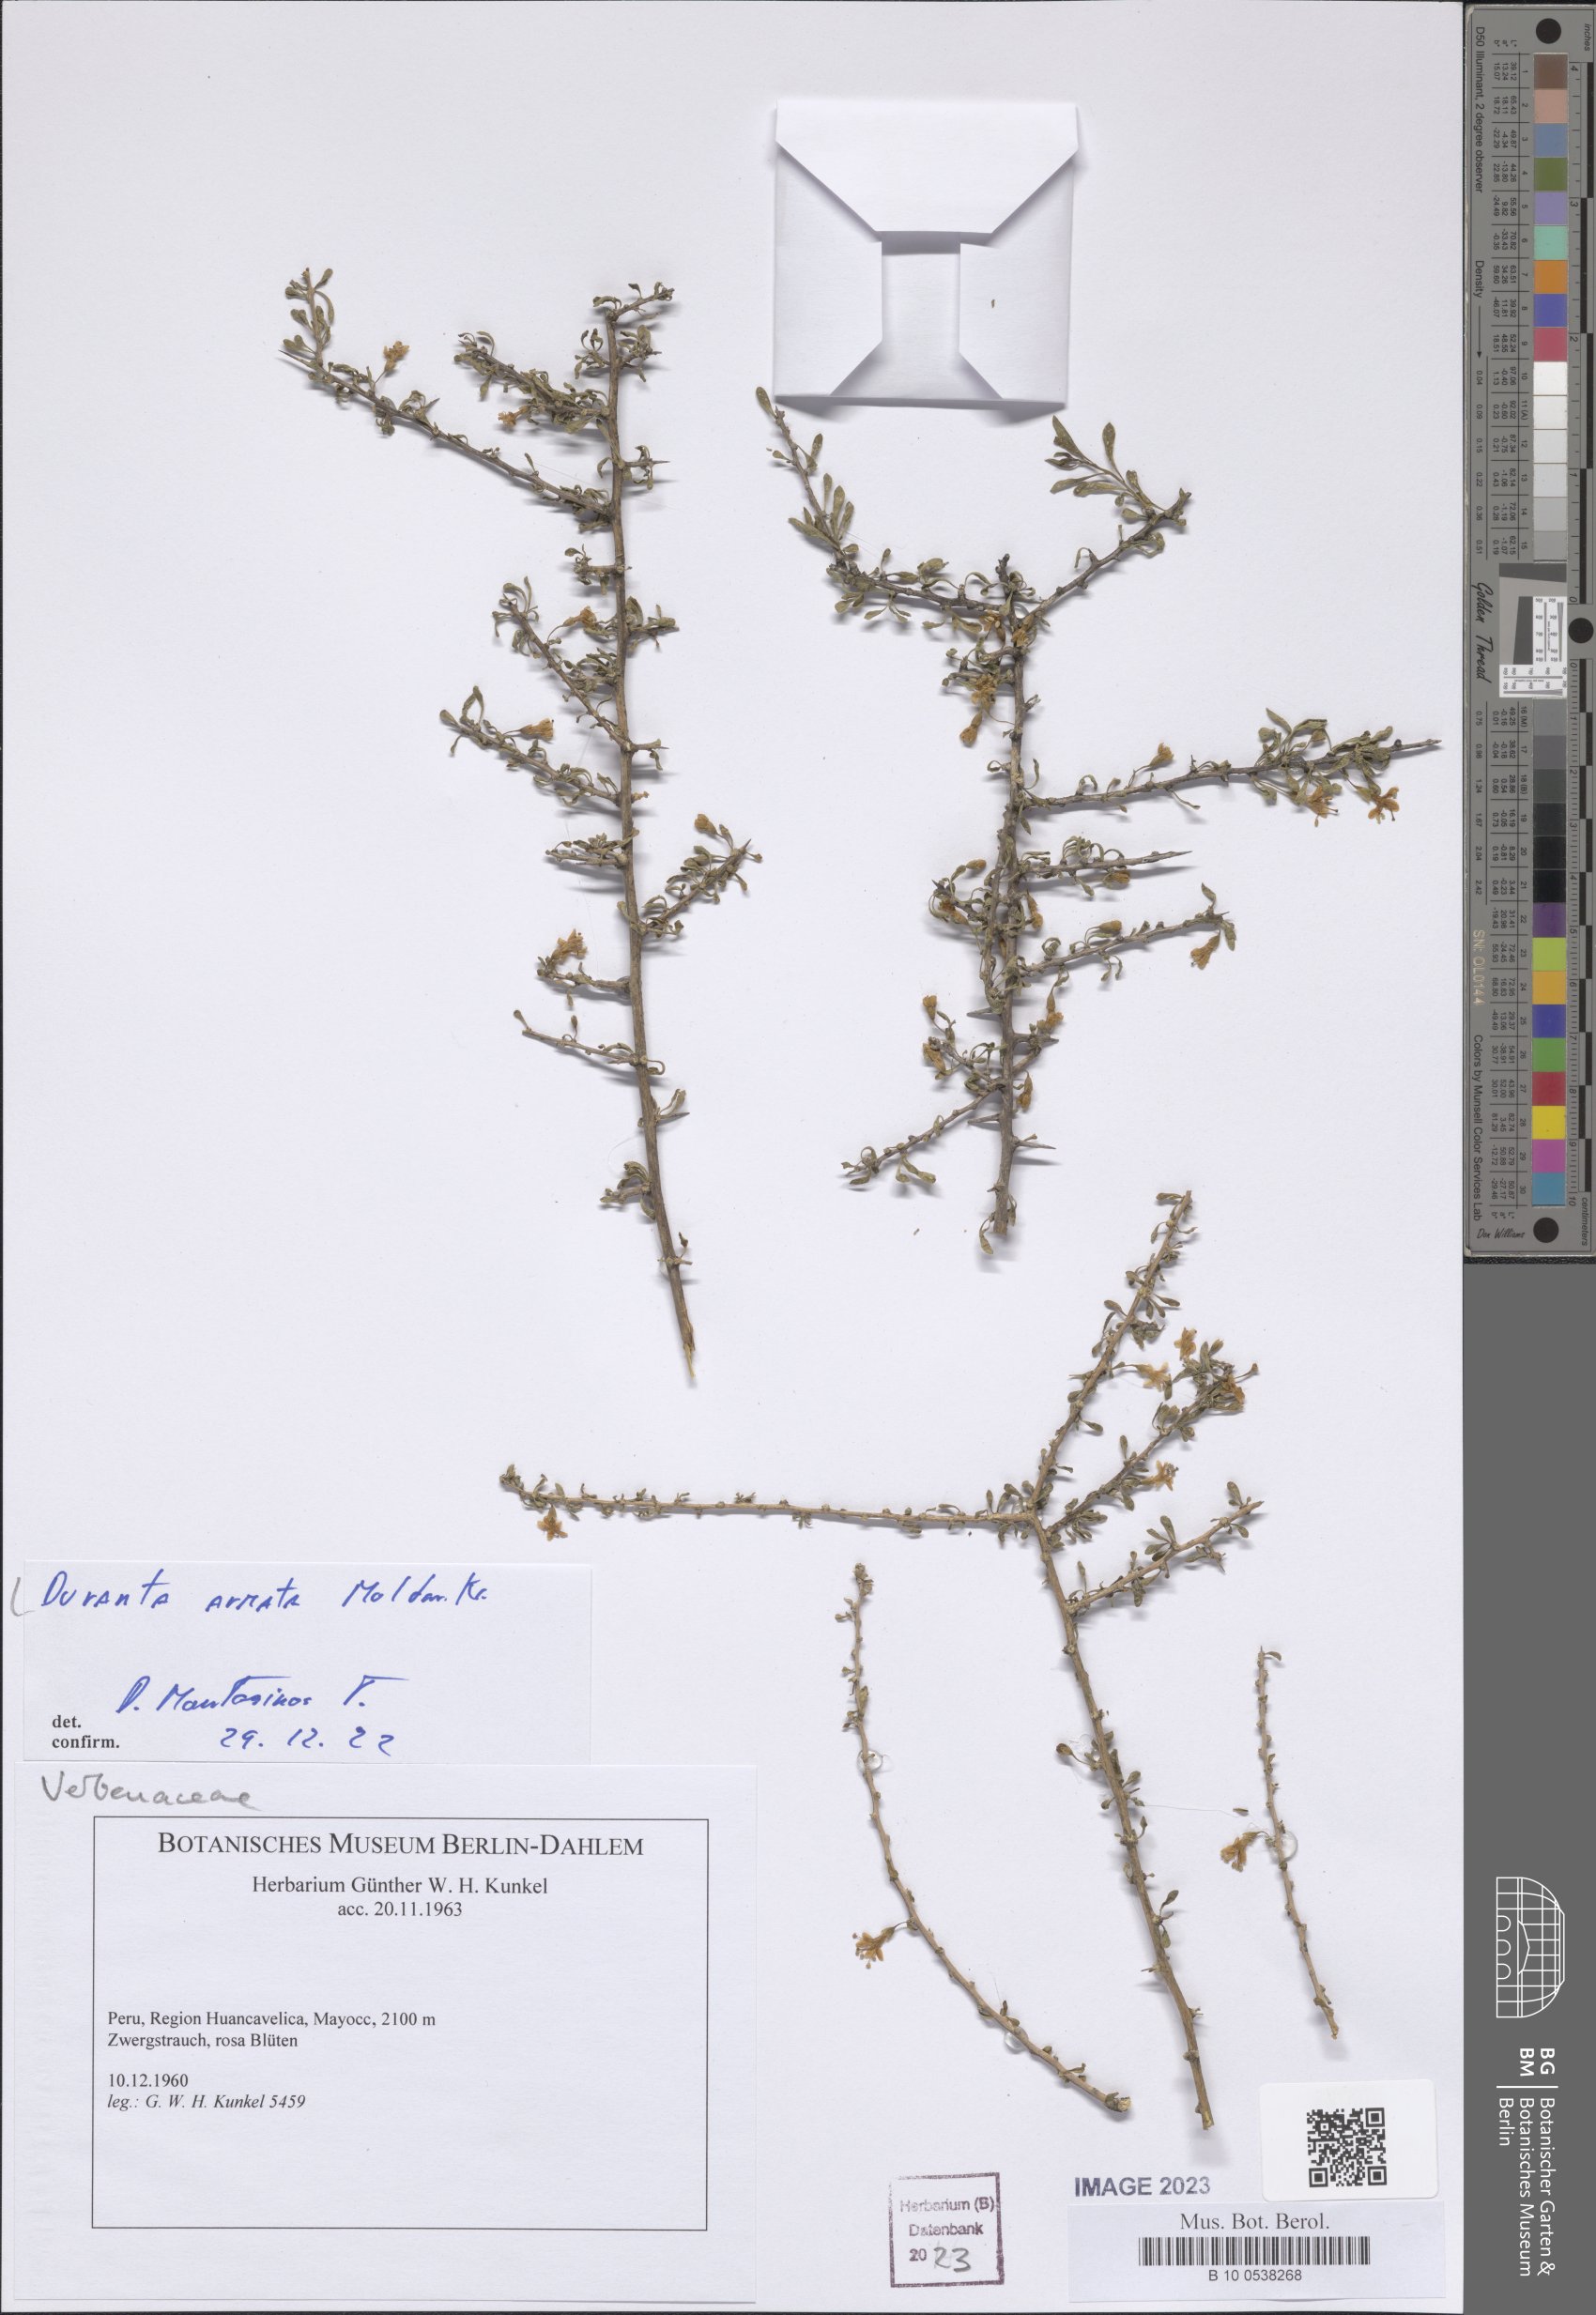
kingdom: Plantae
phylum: Tracheophyta
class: Magnoliopsida
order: Lamiales
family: Verbenaceae
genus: Duranta
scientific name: Duranta armata
